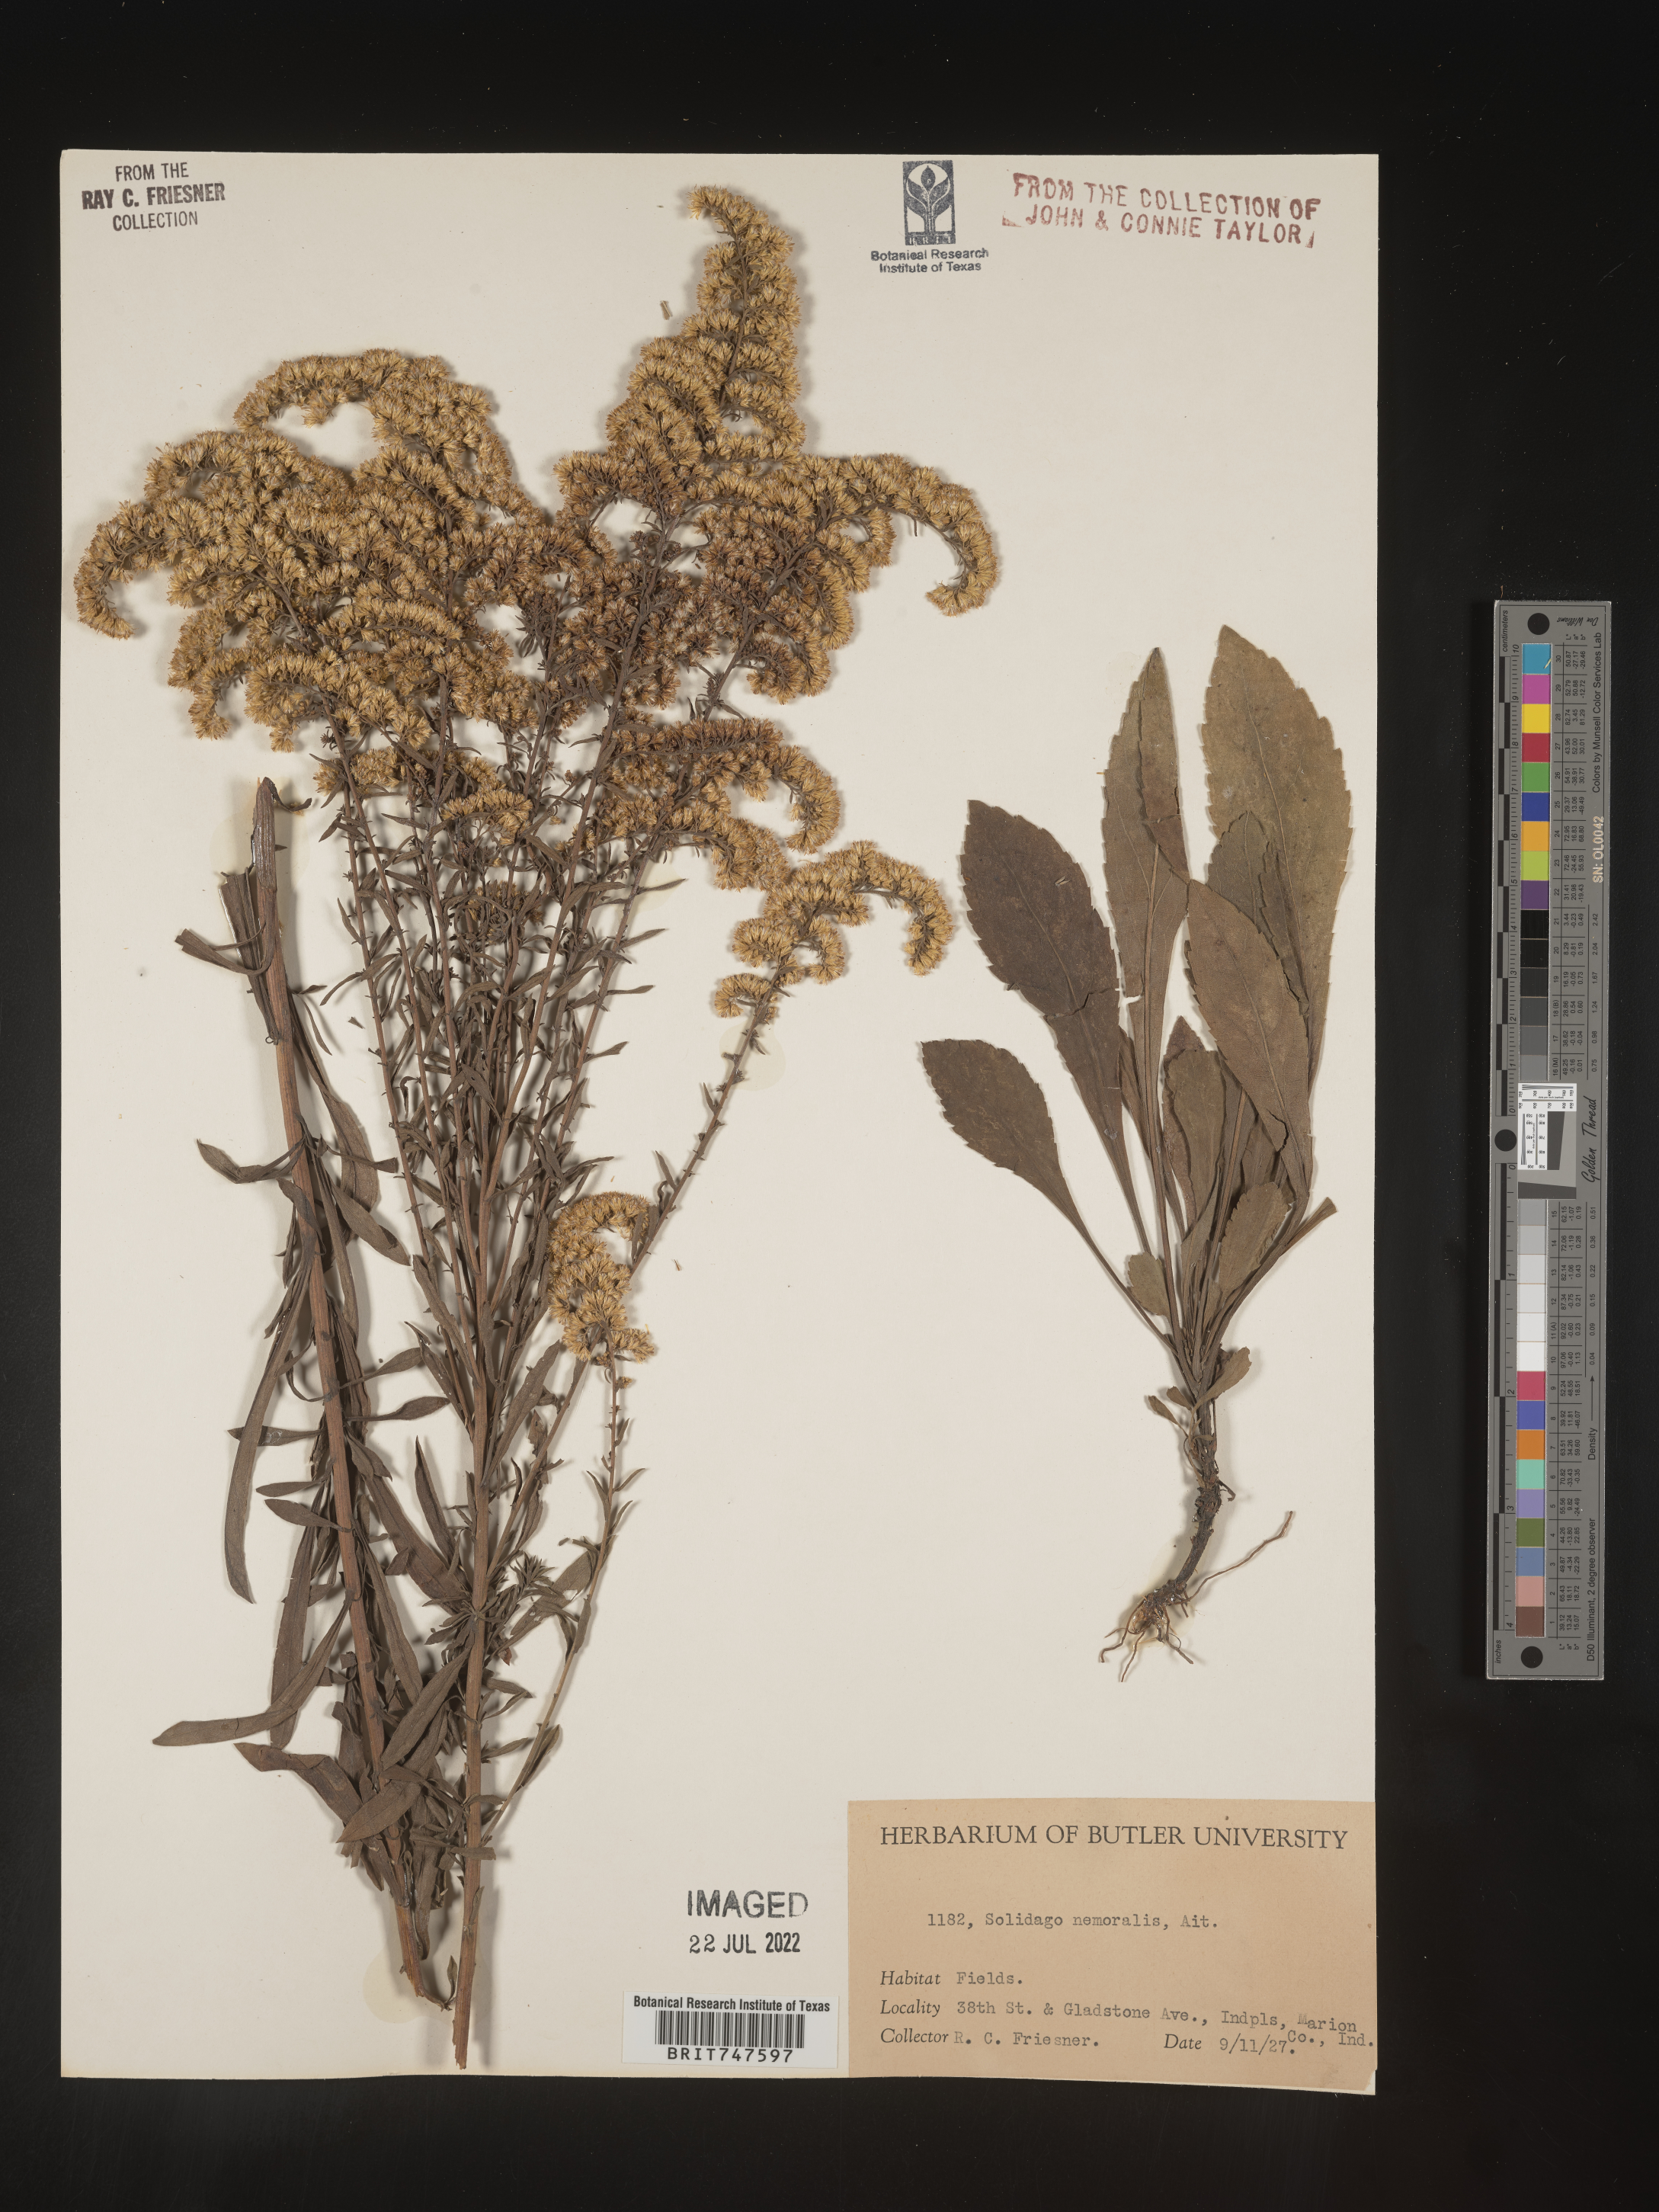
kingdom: Plantae
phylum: Tracheophyta
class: Magnoliopsida
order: Asterales
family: Asteraceae
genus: Solidago
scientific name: Solidago nemoralis
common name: Grey goldenrod
